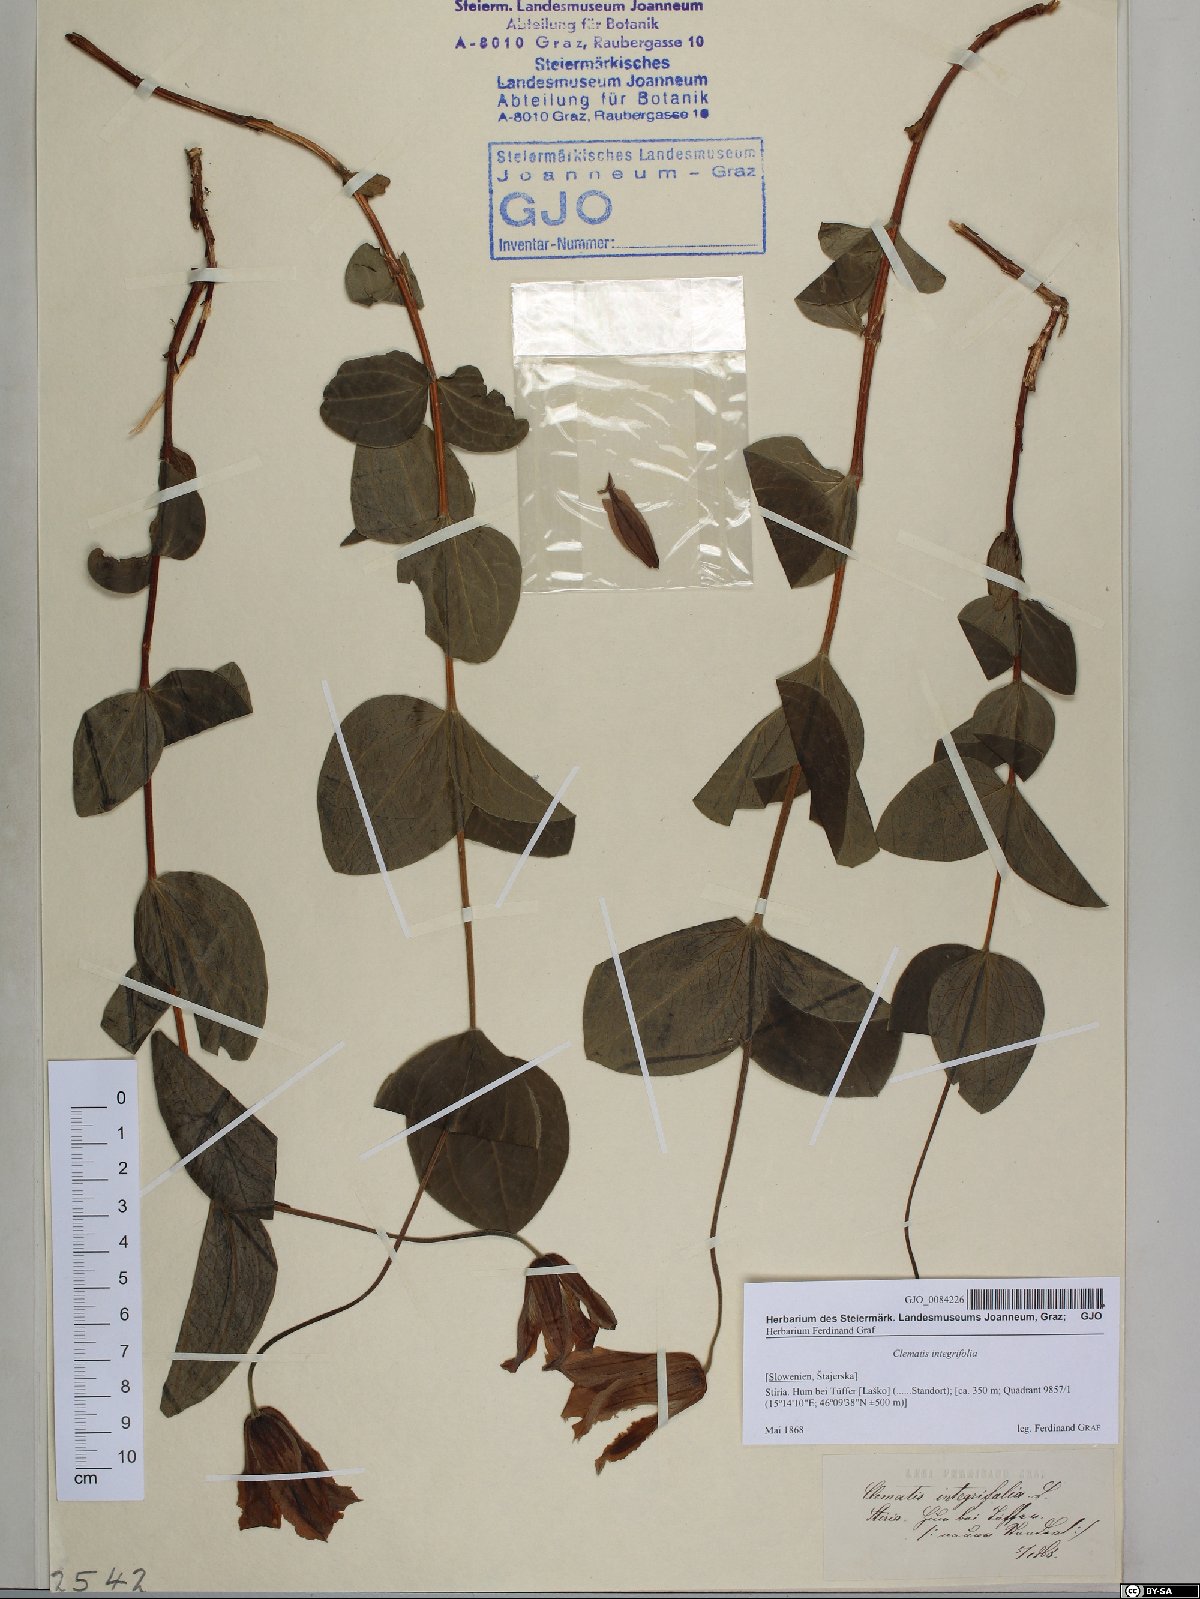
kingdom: Plantae
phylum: Tracheophyta
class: Magnoliopsida
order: Ranunculales
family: Ranunculaceae
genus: Clematis
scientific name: Clematis integrifolia
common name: Solitary clematis
